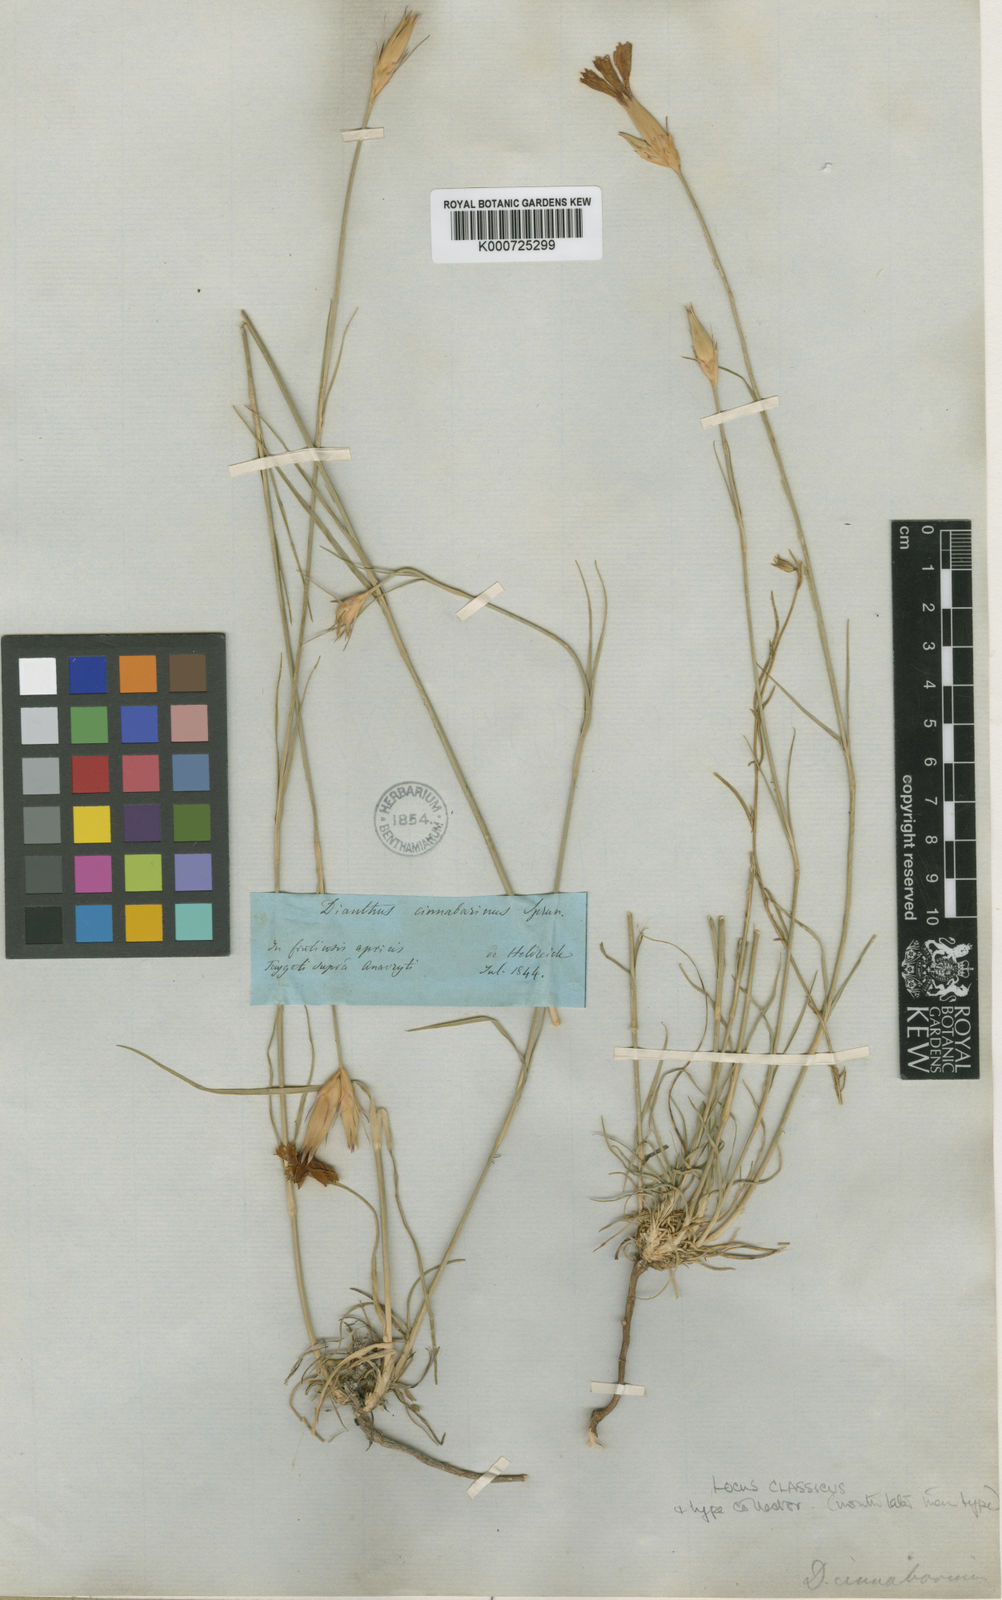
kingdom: Plantae
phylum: Tracheophyta
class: Magnoliopsida
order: Caryophyllales
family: Caryophyllaceae
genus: Dianthus
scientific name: Dianthus
